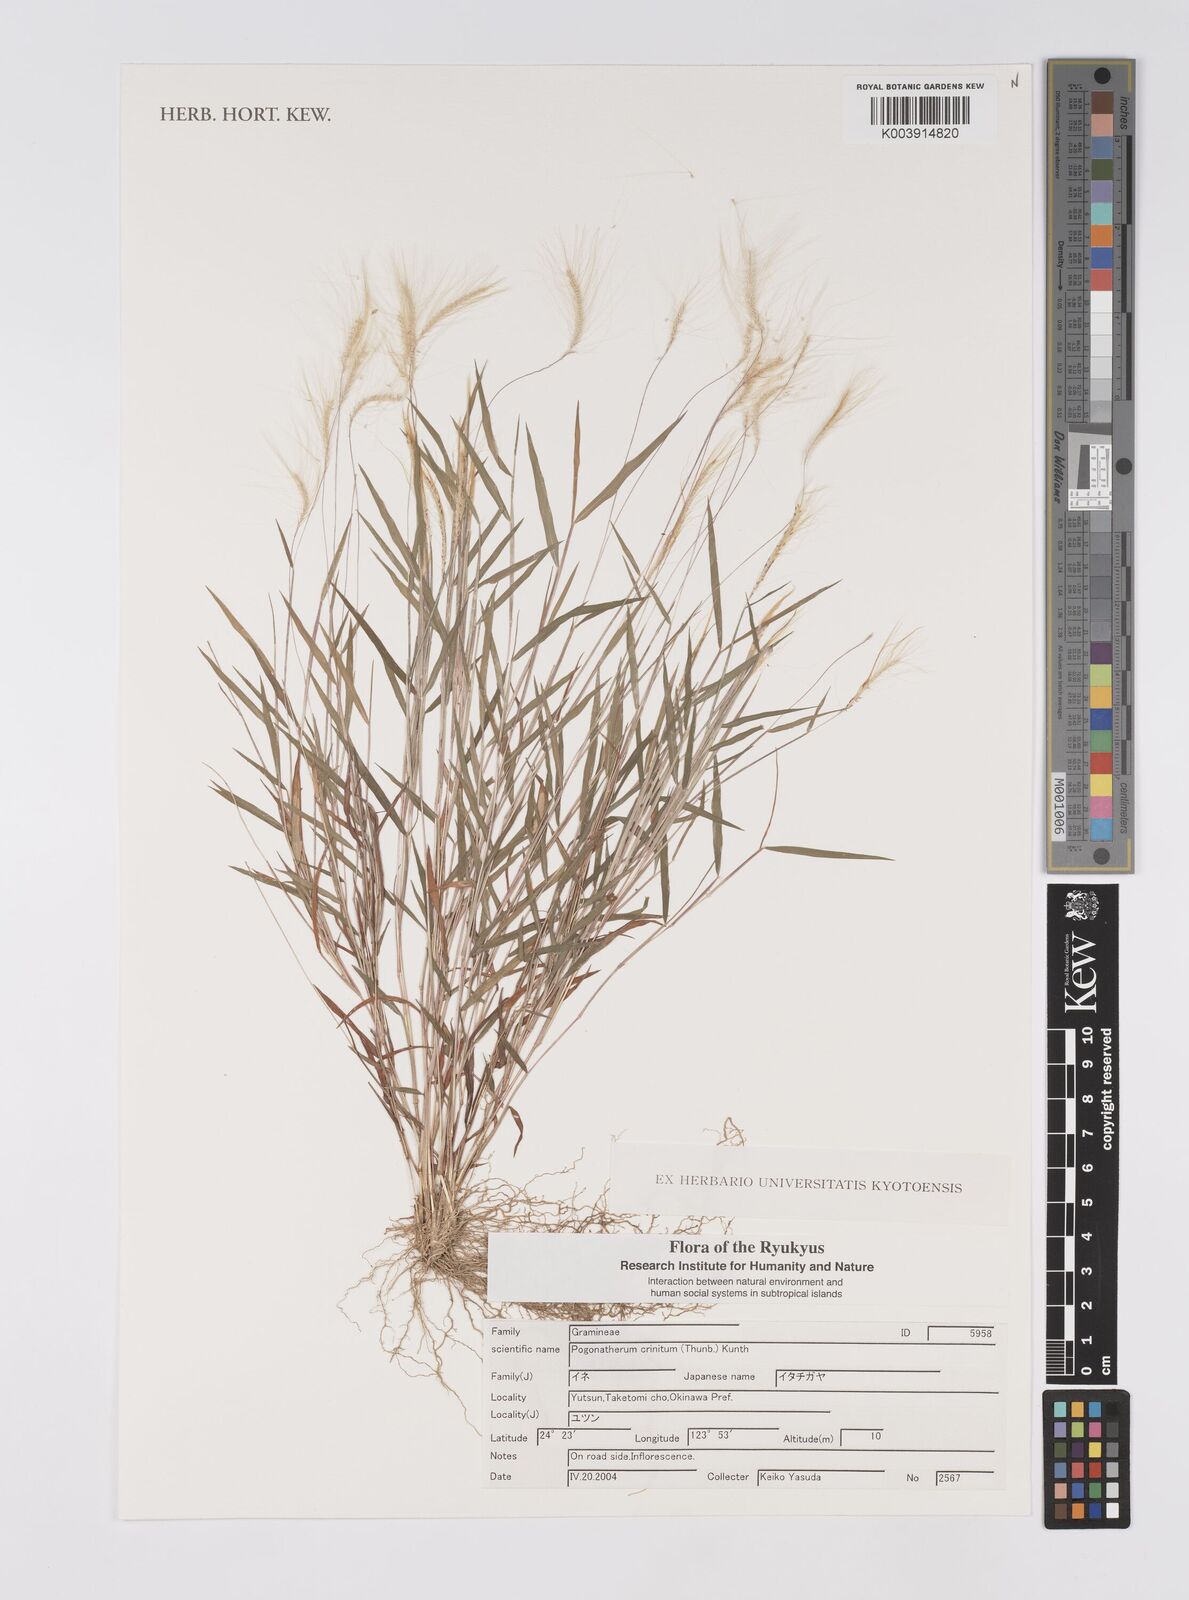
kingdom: Plantae
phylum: Tracheophyta
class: Liliopsida
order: Poales
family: Poaceae
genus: Pogonatherum
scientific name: Pogonatherum crinitum
